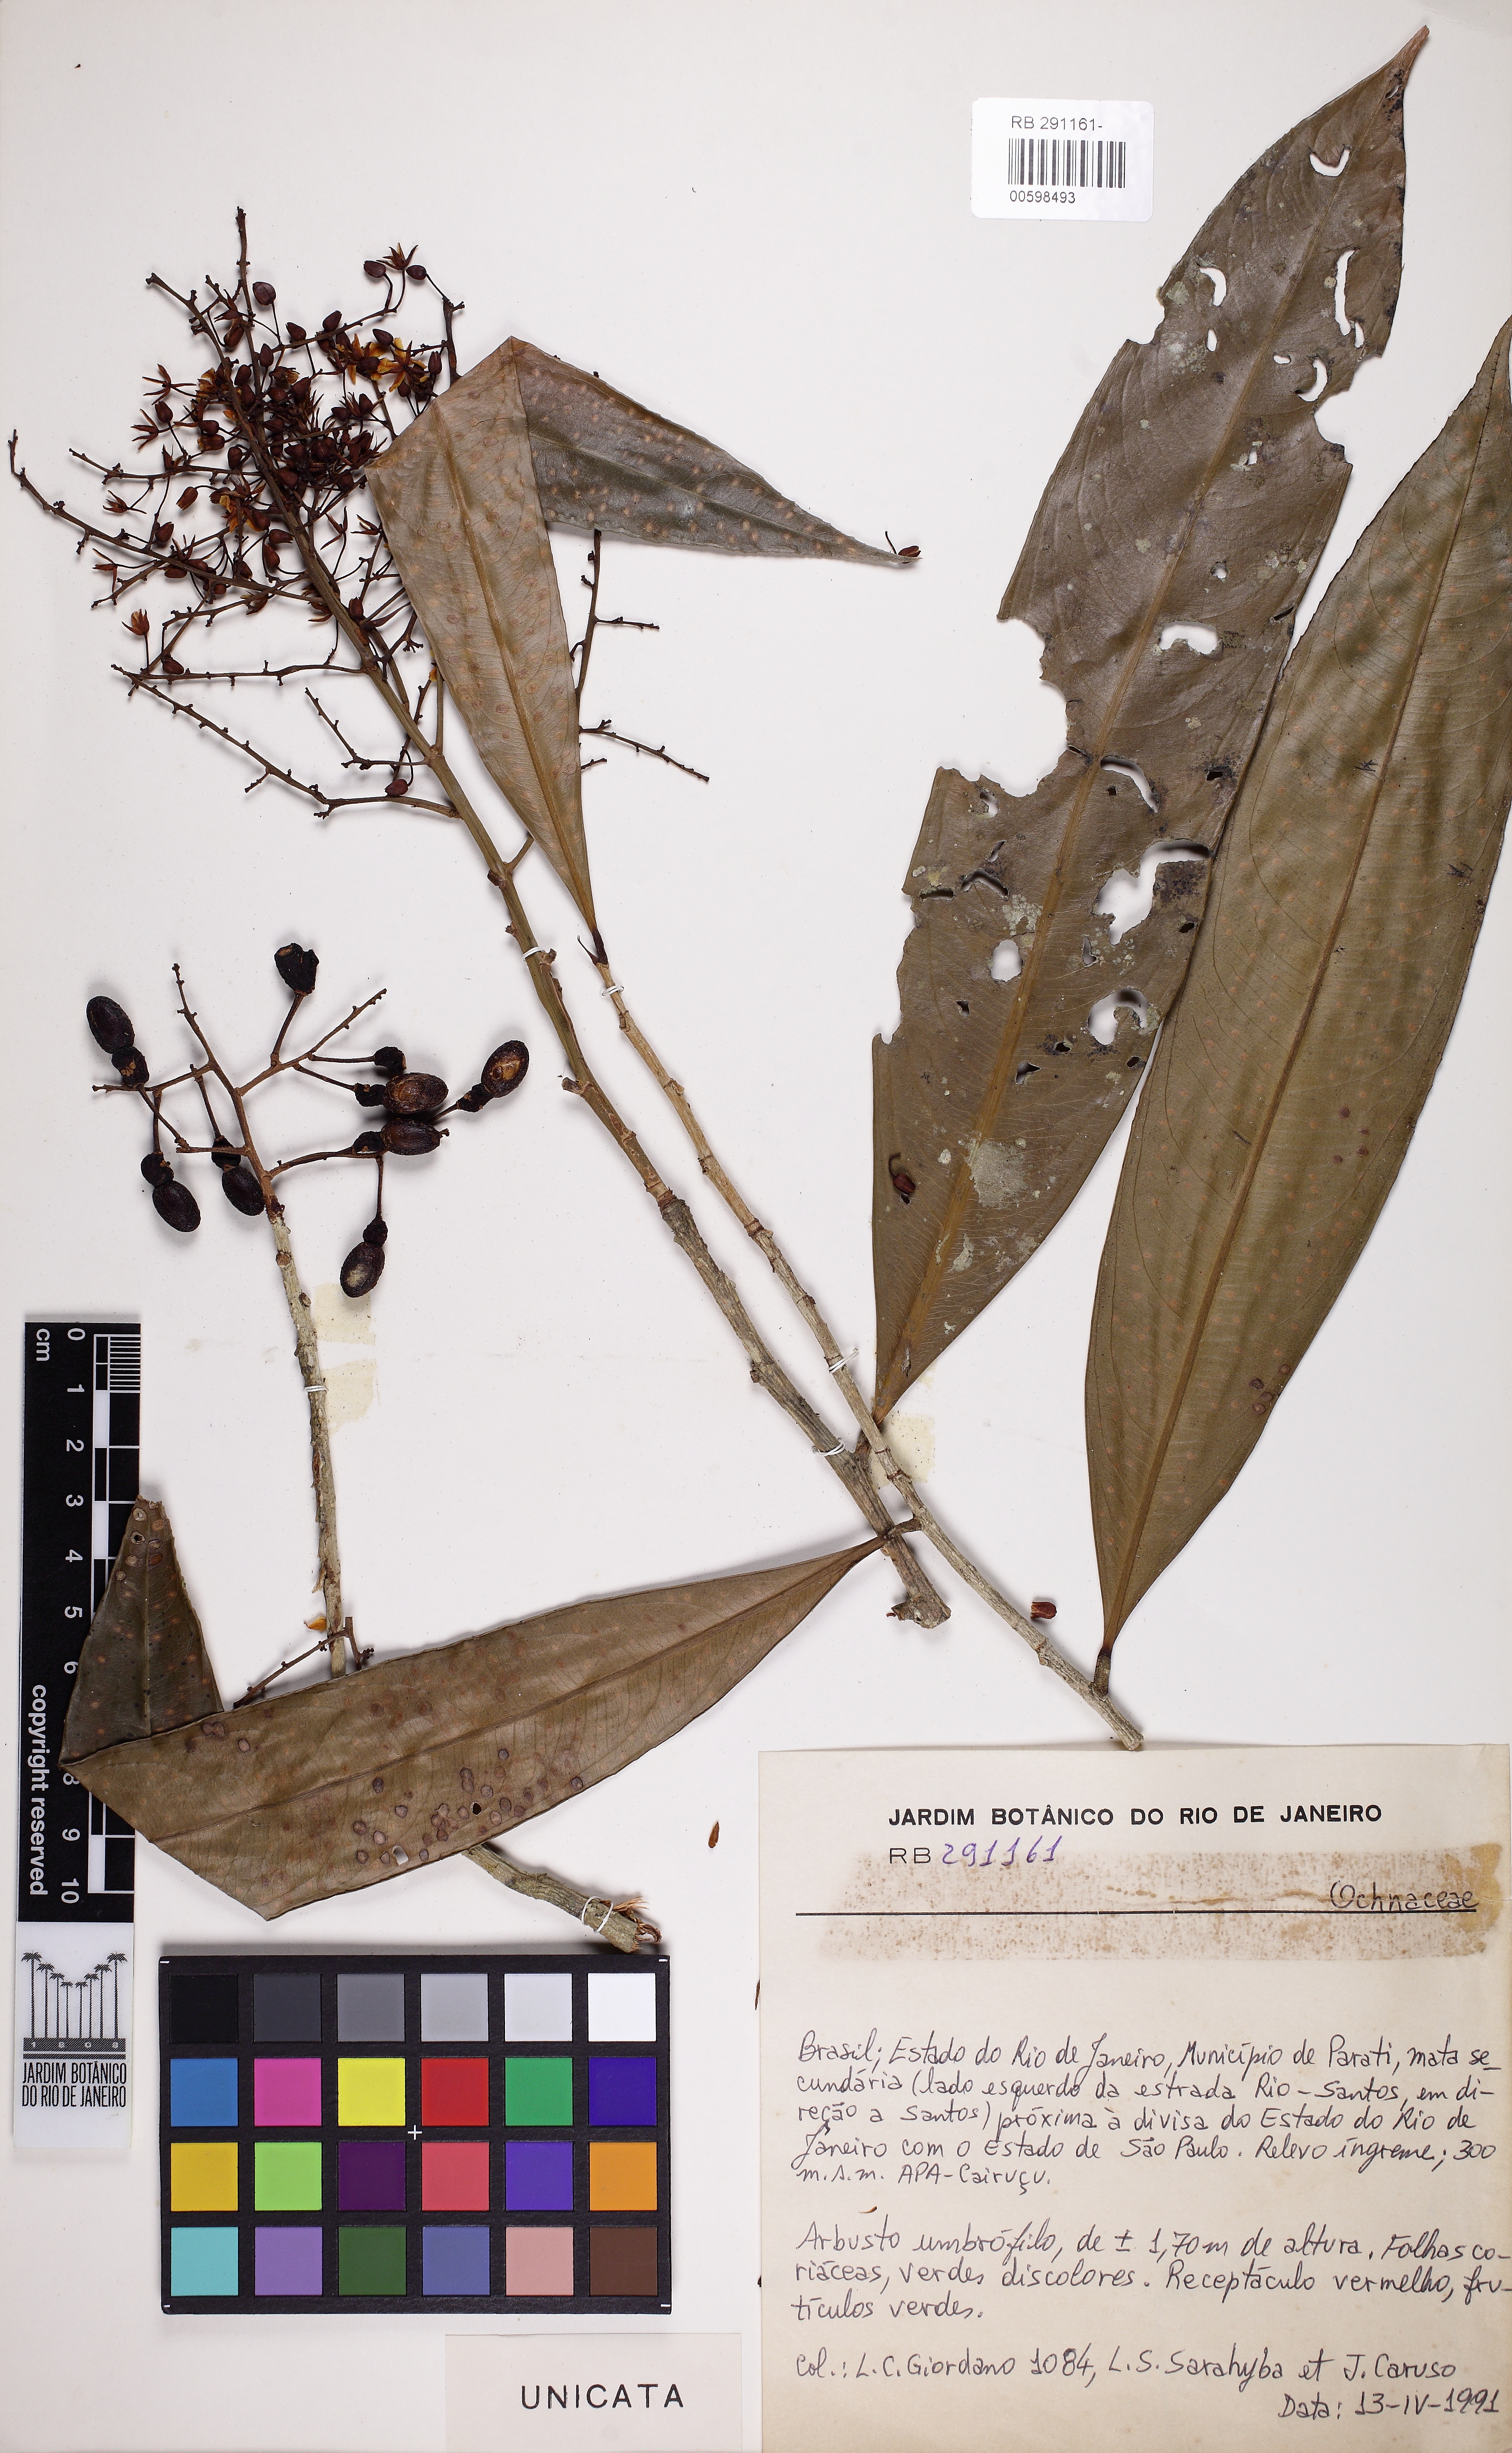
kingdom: Plantae
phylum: Tracheophyta
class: Magnoliopsida
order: Malpighiales
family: Ochnaceae
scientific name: Ochnaceae
